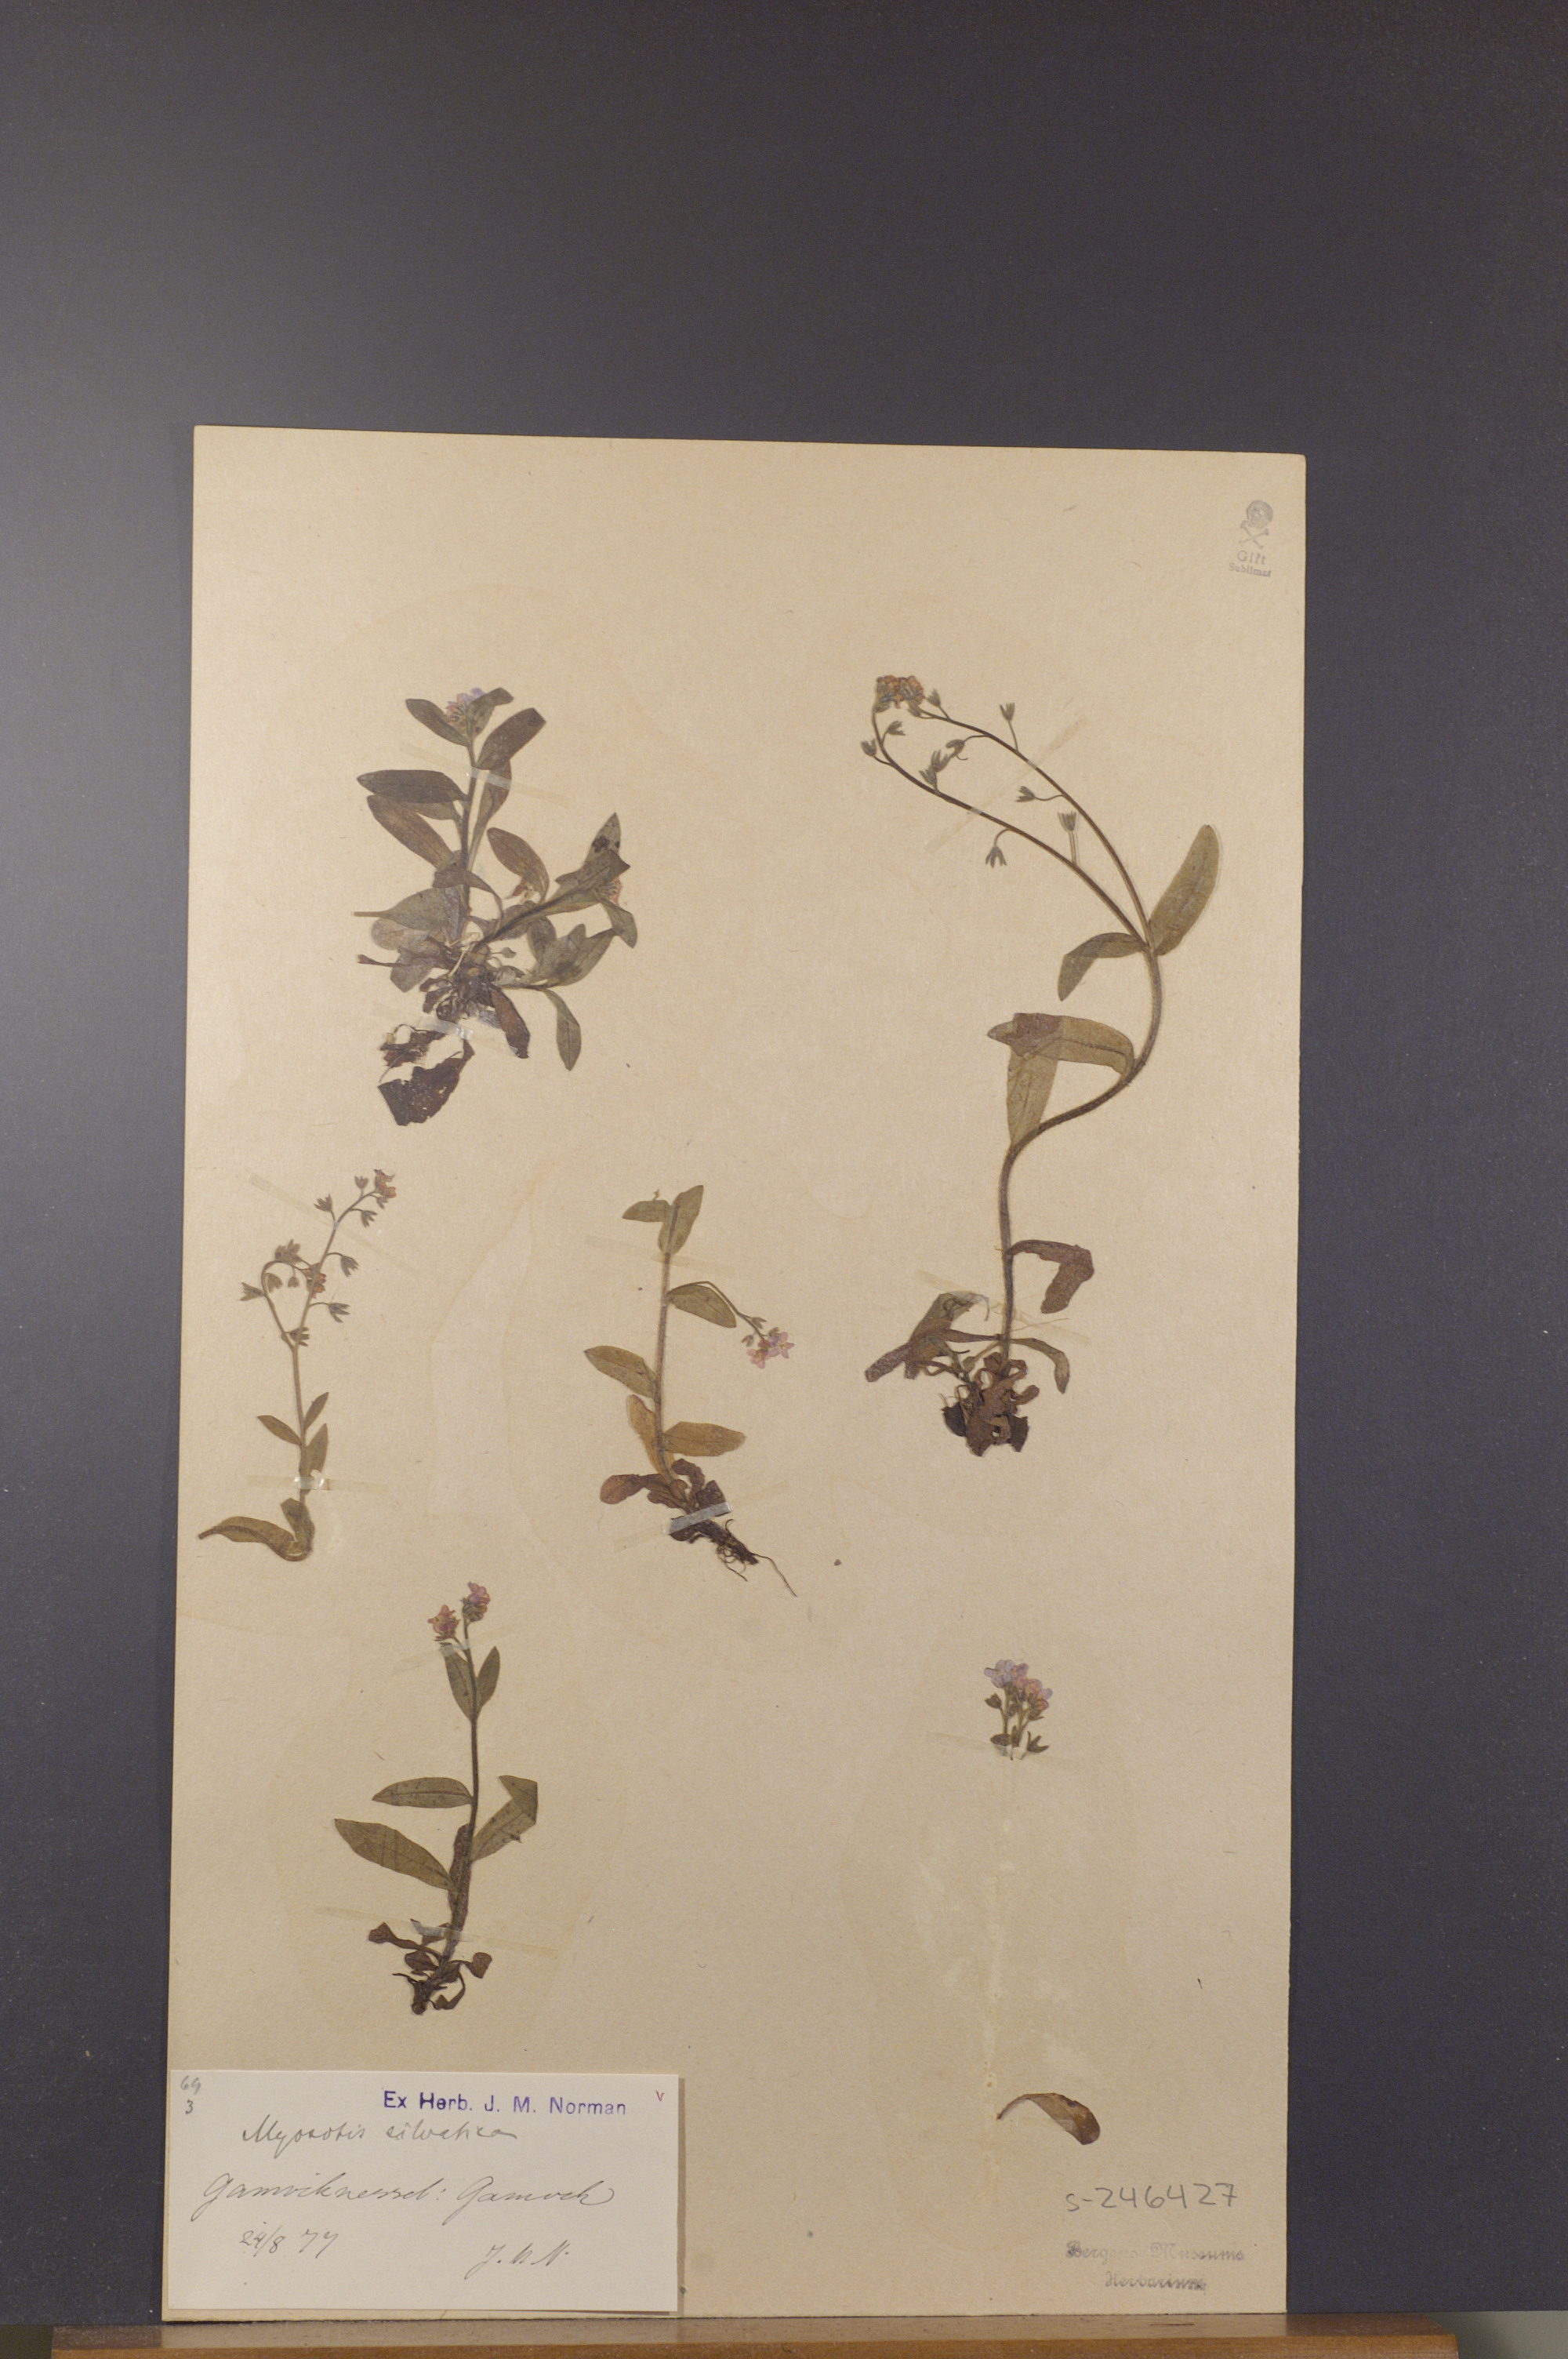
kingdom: Plantae
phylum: Tracheophyta
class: Magnoliopsida
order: Boraginales
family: Boraginaceae
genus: Myosotis
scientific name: Myosotis decumbens
